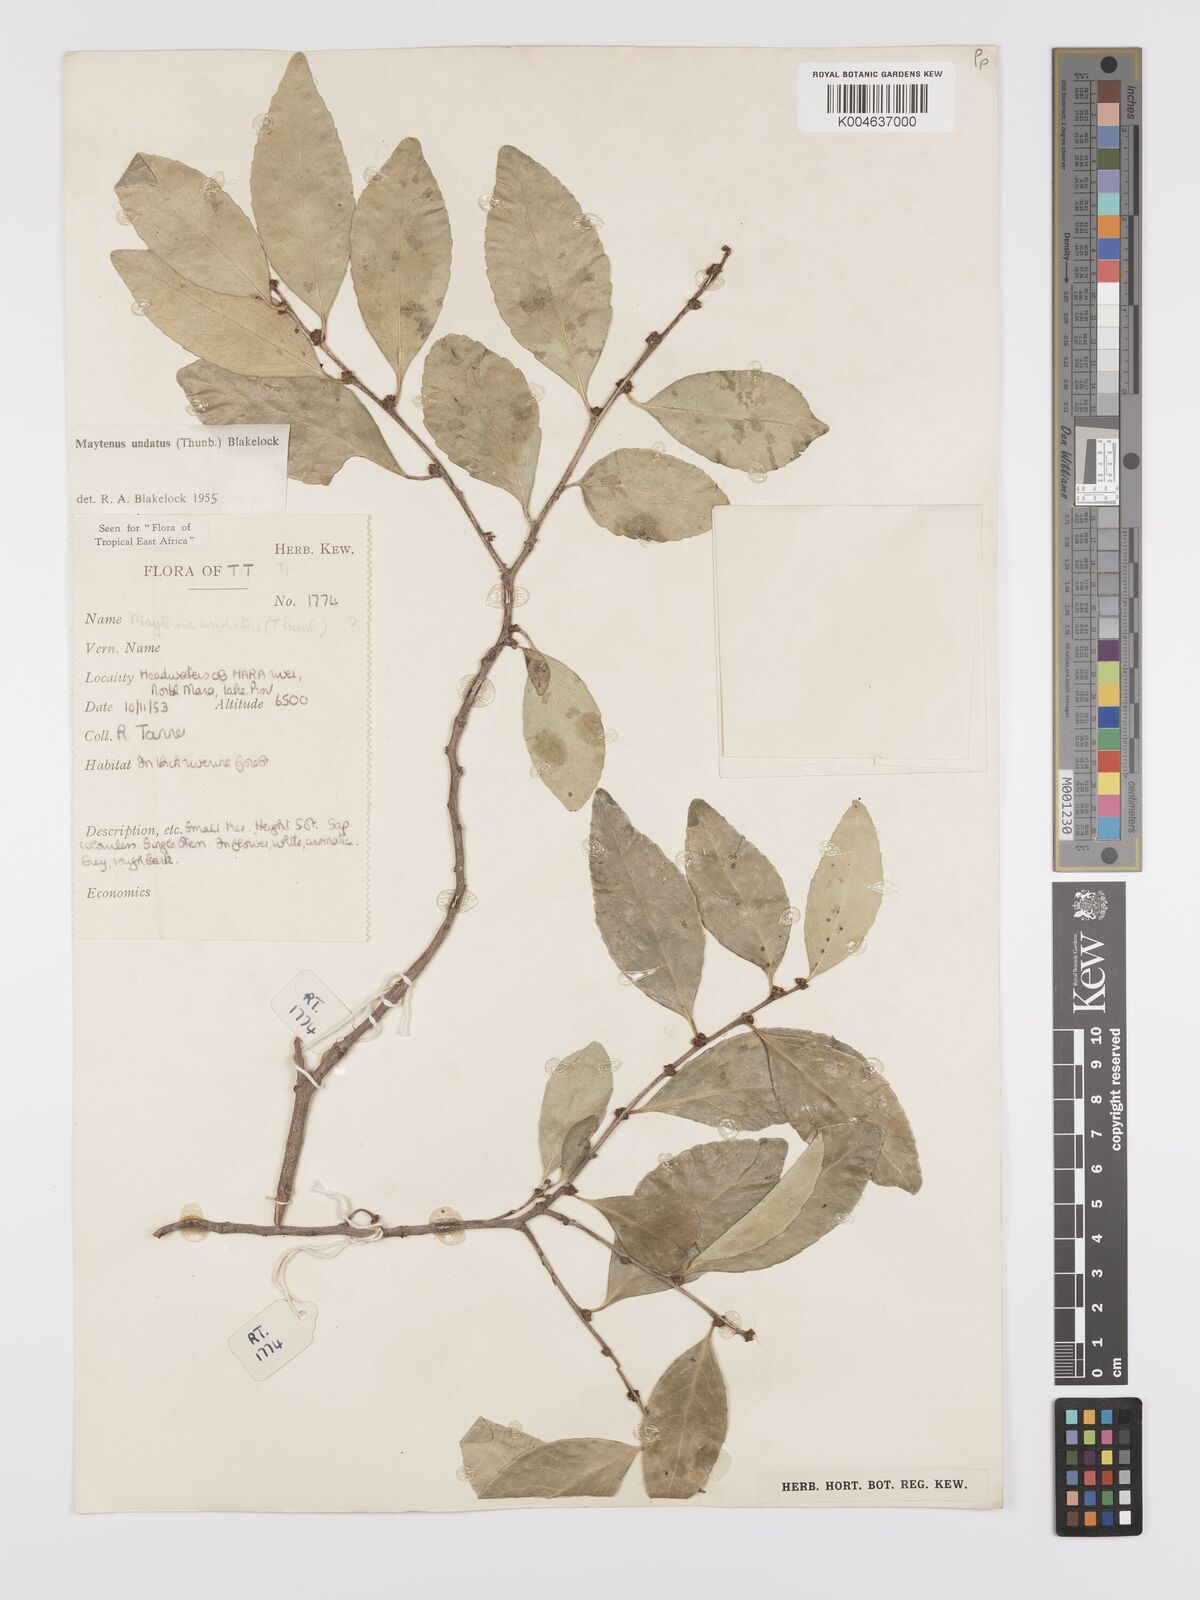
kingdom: Plantae
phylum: Tracheophyta
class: Magnoliopsida
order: Celastrales
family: Celastraceae
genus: Gymnosporia
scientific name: Gymnosporia undata
